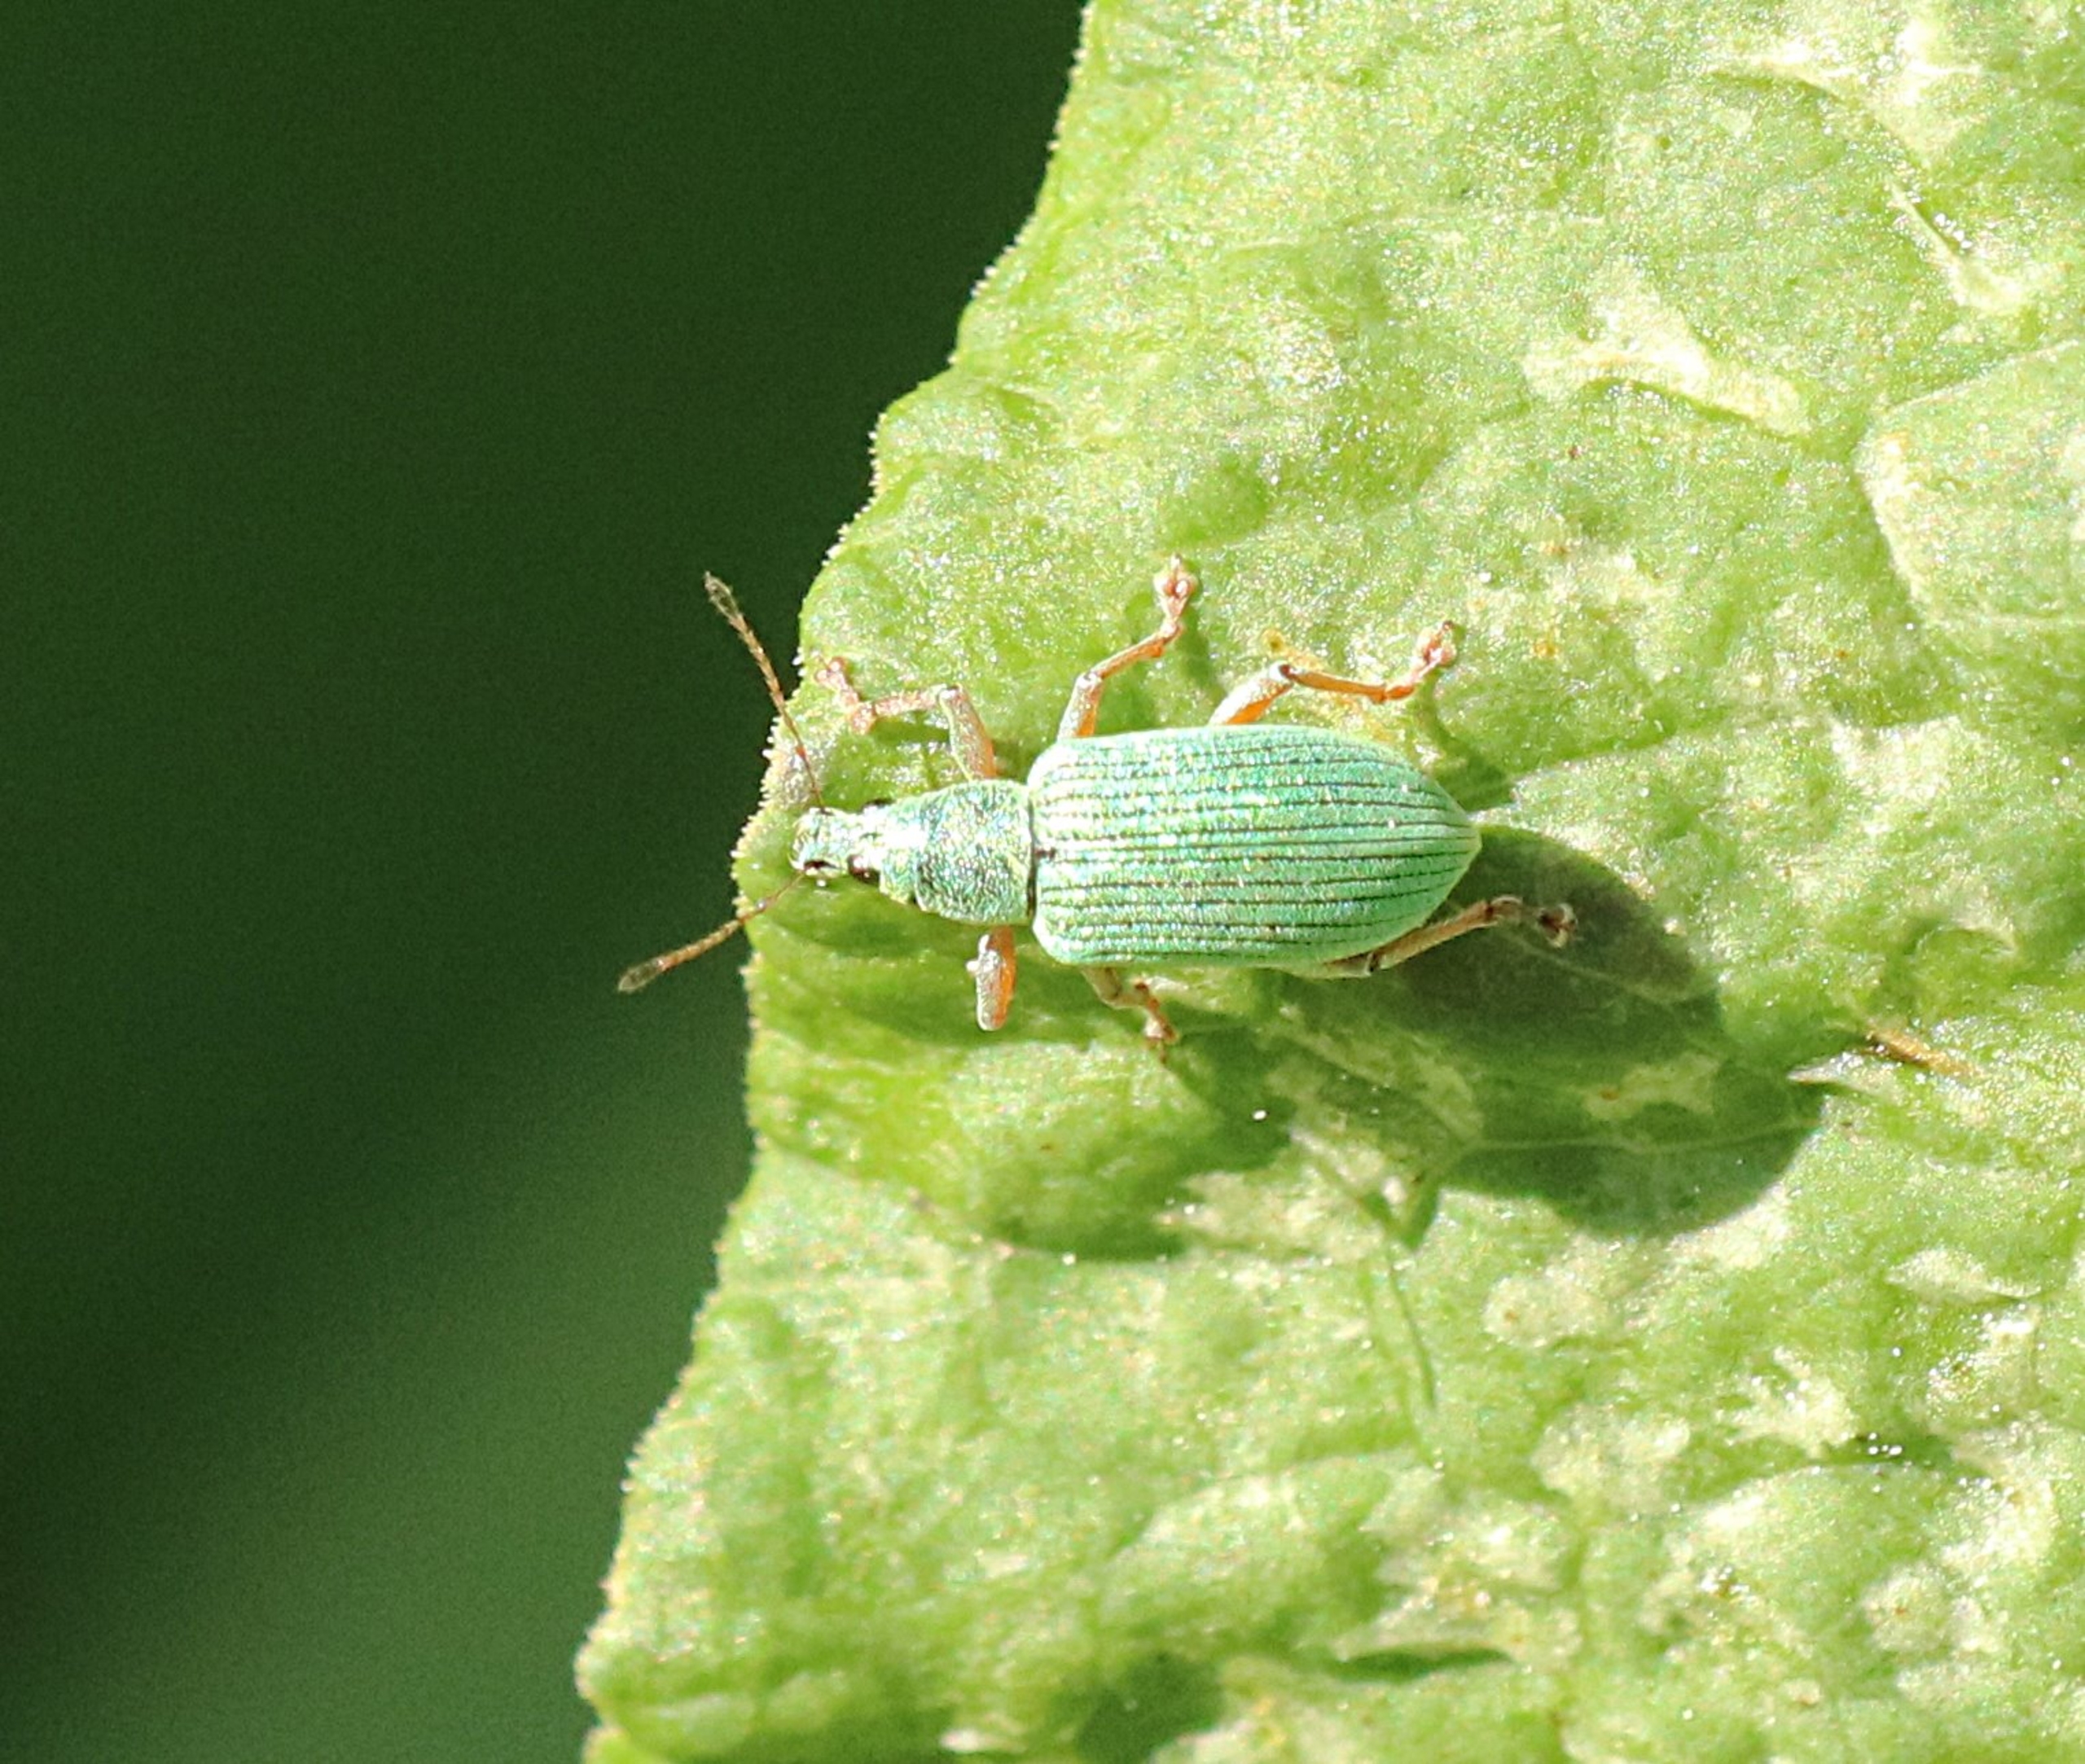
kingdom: Animalia
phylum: Arthropoda
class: Insecta
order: Coleoptera
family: Curculionidae
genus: Polydrusus
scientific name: Polydrusus formosus
